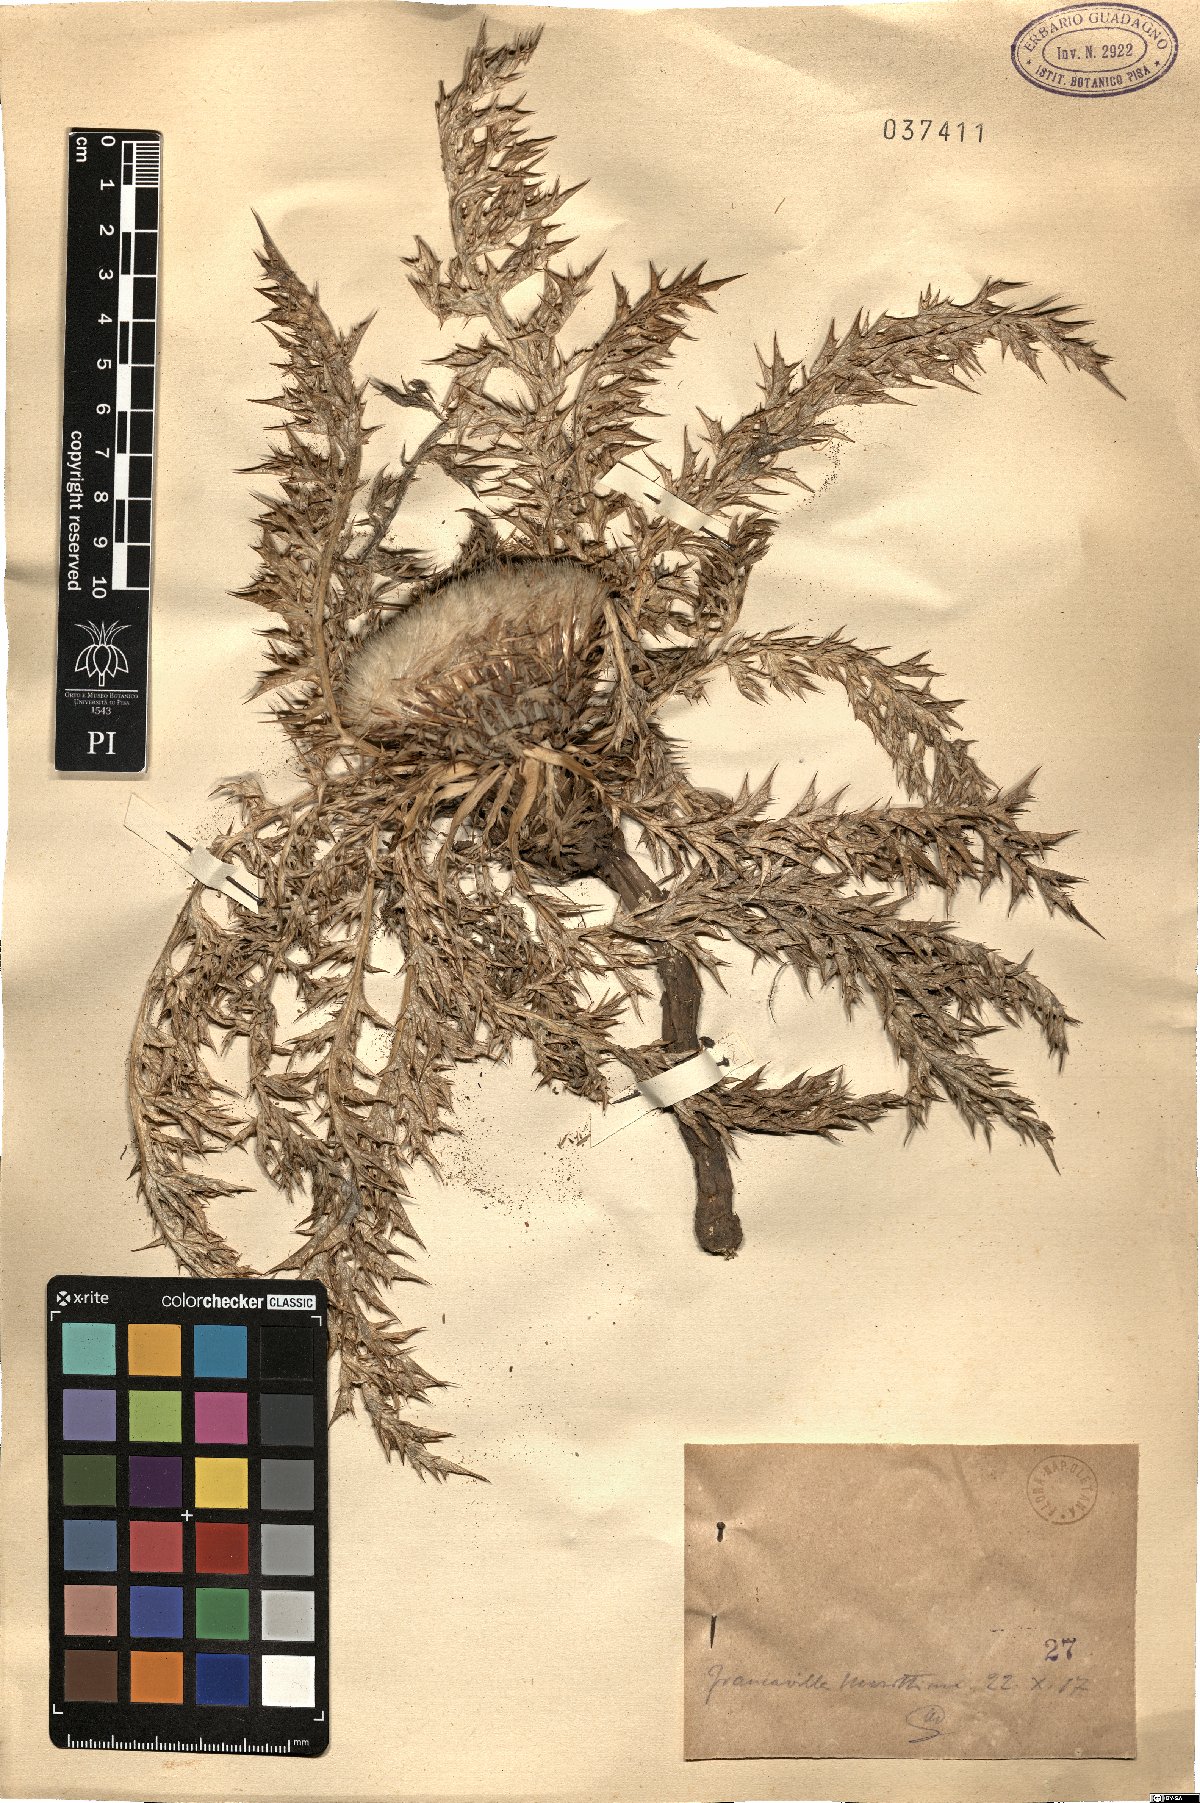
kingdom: Plantae
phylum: Tracheophyta
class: Magnoliopsida
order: Asterales
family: Asteraceae
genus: Carlina
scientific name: Carlina
